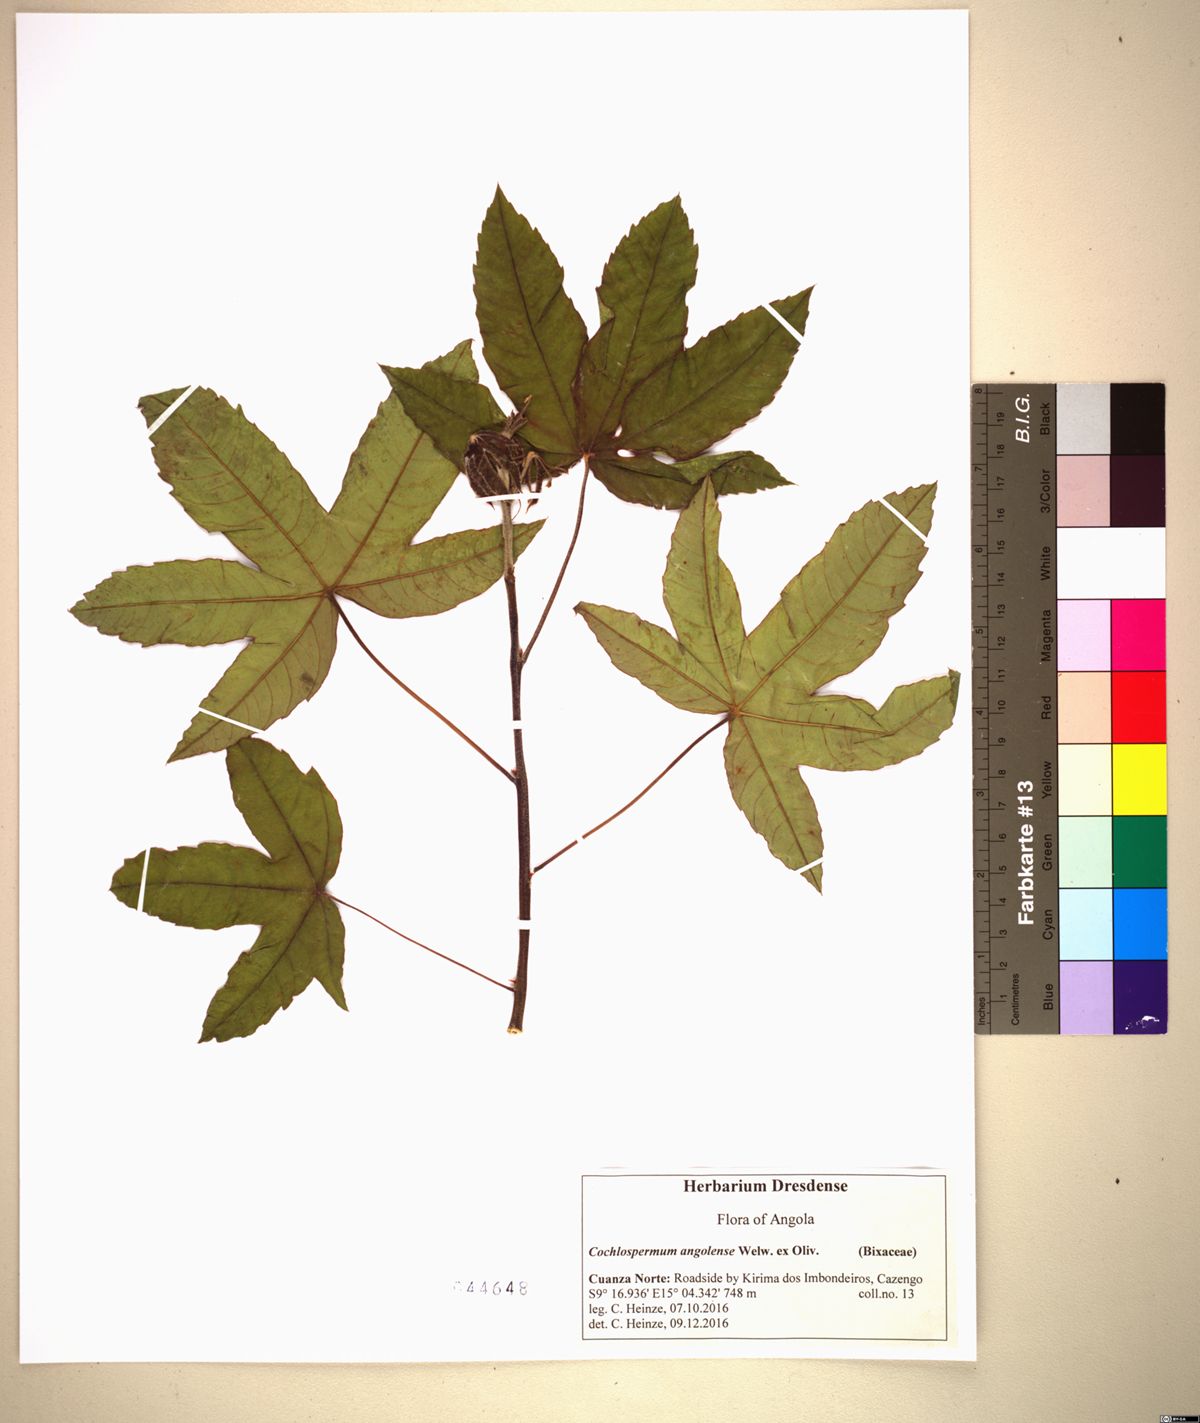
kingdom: Plantae
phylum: Tracheophyta
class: Magnoliopsida
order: Malvales
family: Cochlospermaceae
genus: Cochlospermum
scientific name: Cochlospermum angolense
